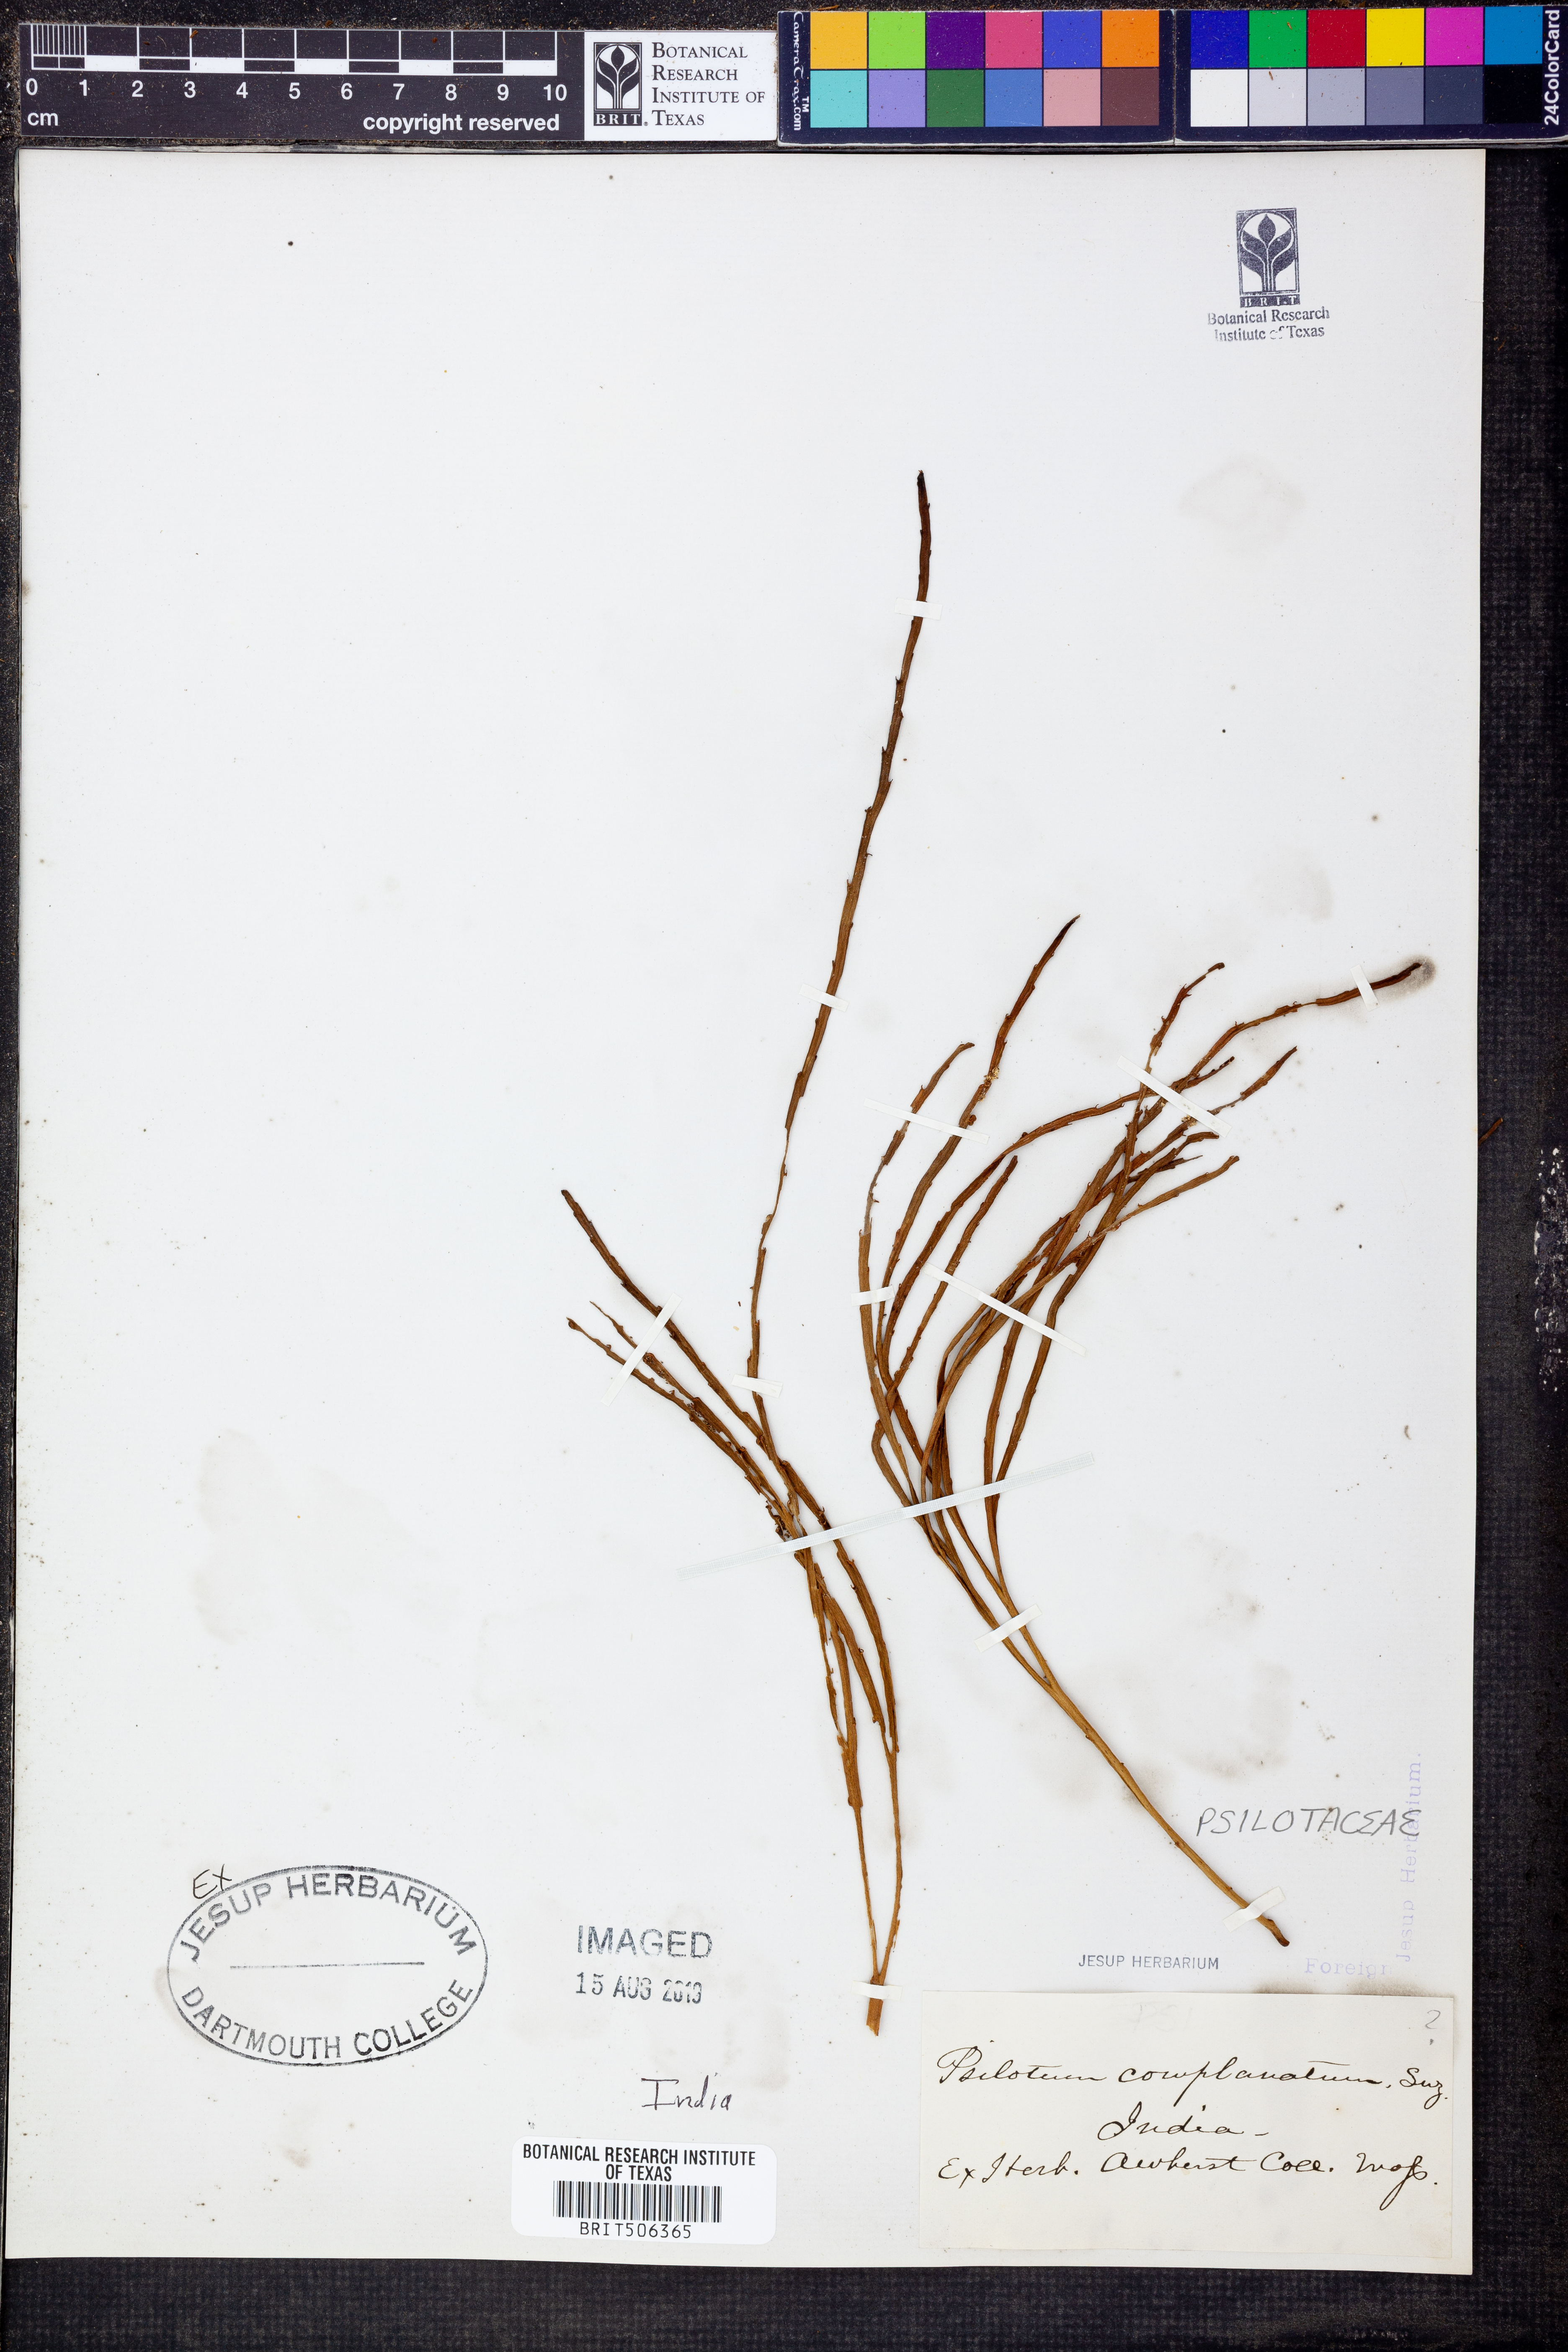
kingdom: Plantae
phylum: Tracheophyta
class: Polypodiopsida
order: Psilotales
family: Psilotaceae
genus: Psilotum
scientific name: Psilotum complanatum
